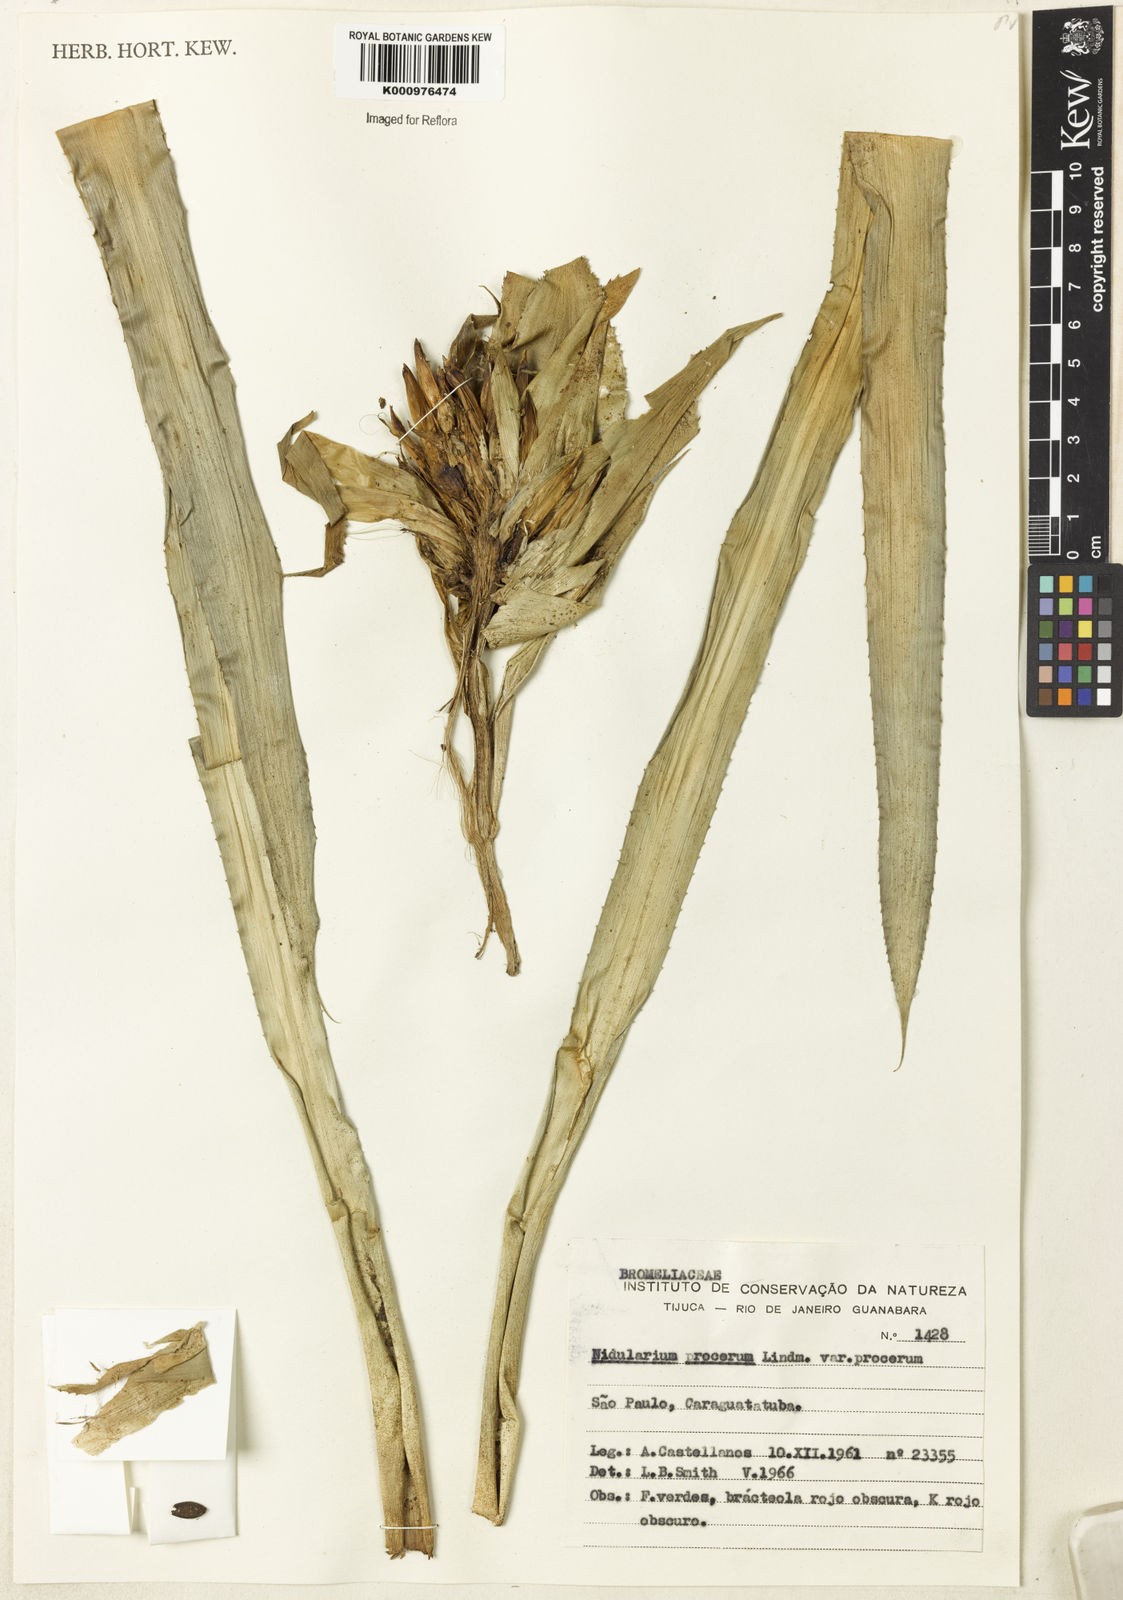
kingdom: Plantae
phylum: Tracheophyta
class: Liliopsida
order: Poales
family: Bromeliaceae
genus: Nidularium
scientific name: Nidularium procerum
